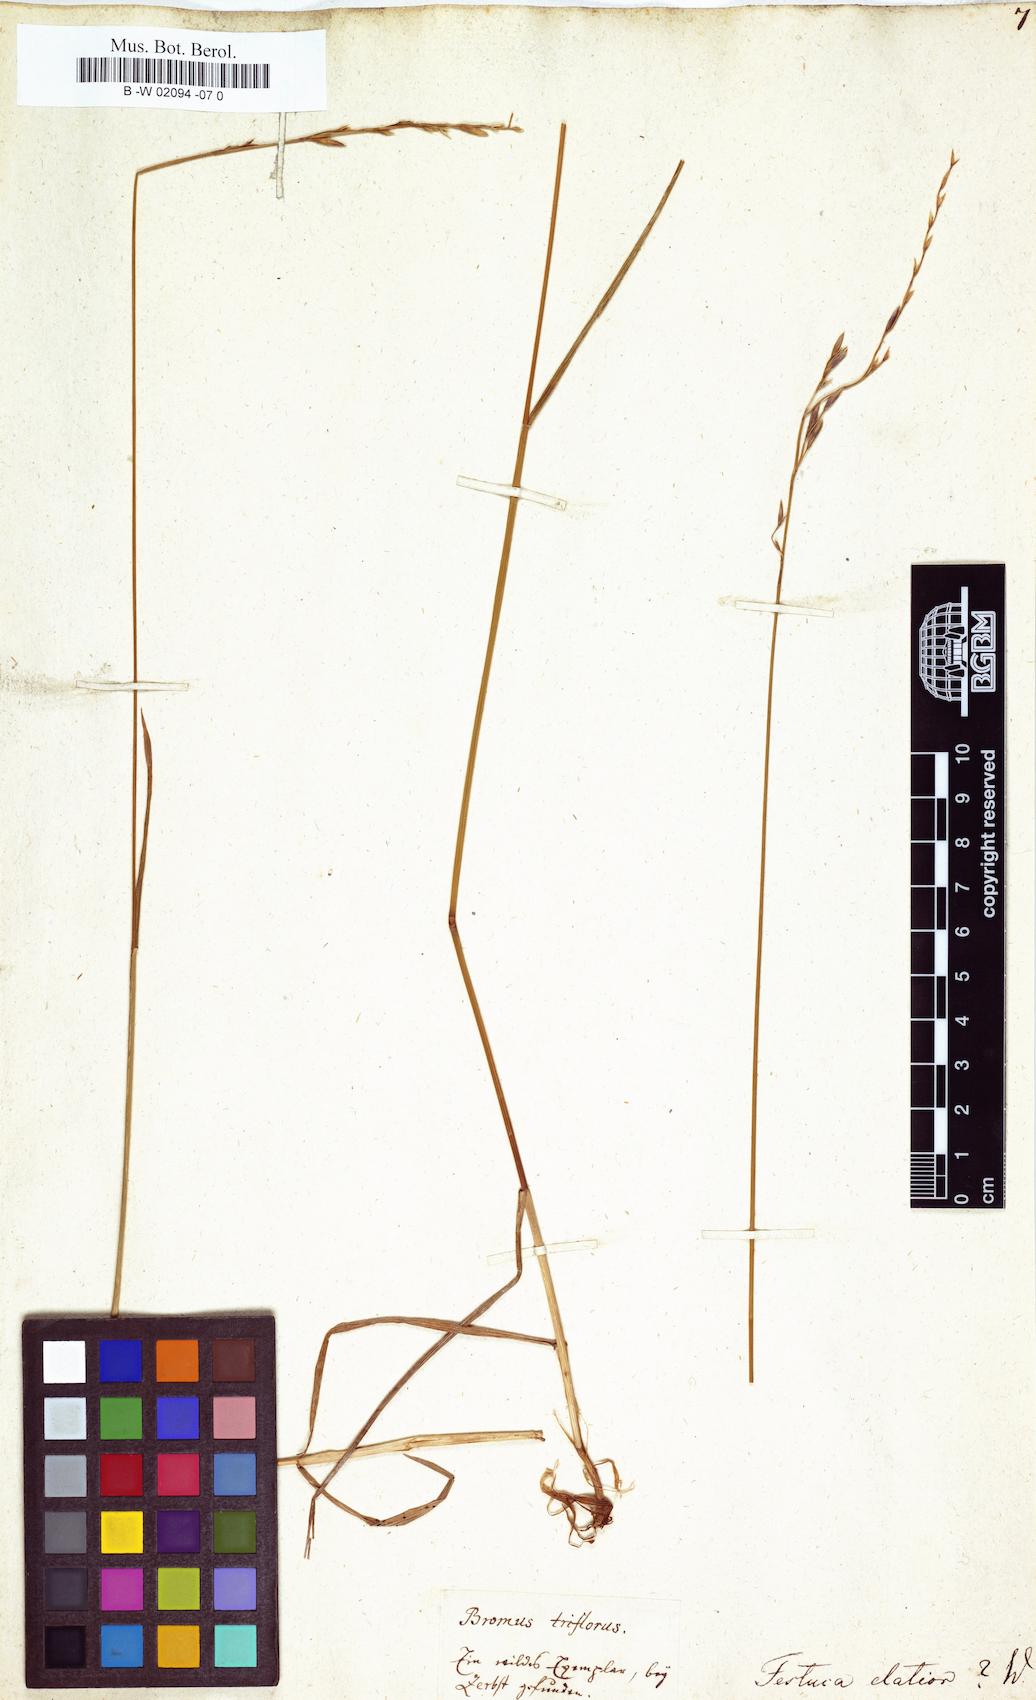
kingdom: Plantae
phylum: Tracheophyta
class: Liliopsida
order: Poales
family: Poaceae
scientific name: Poaceae
